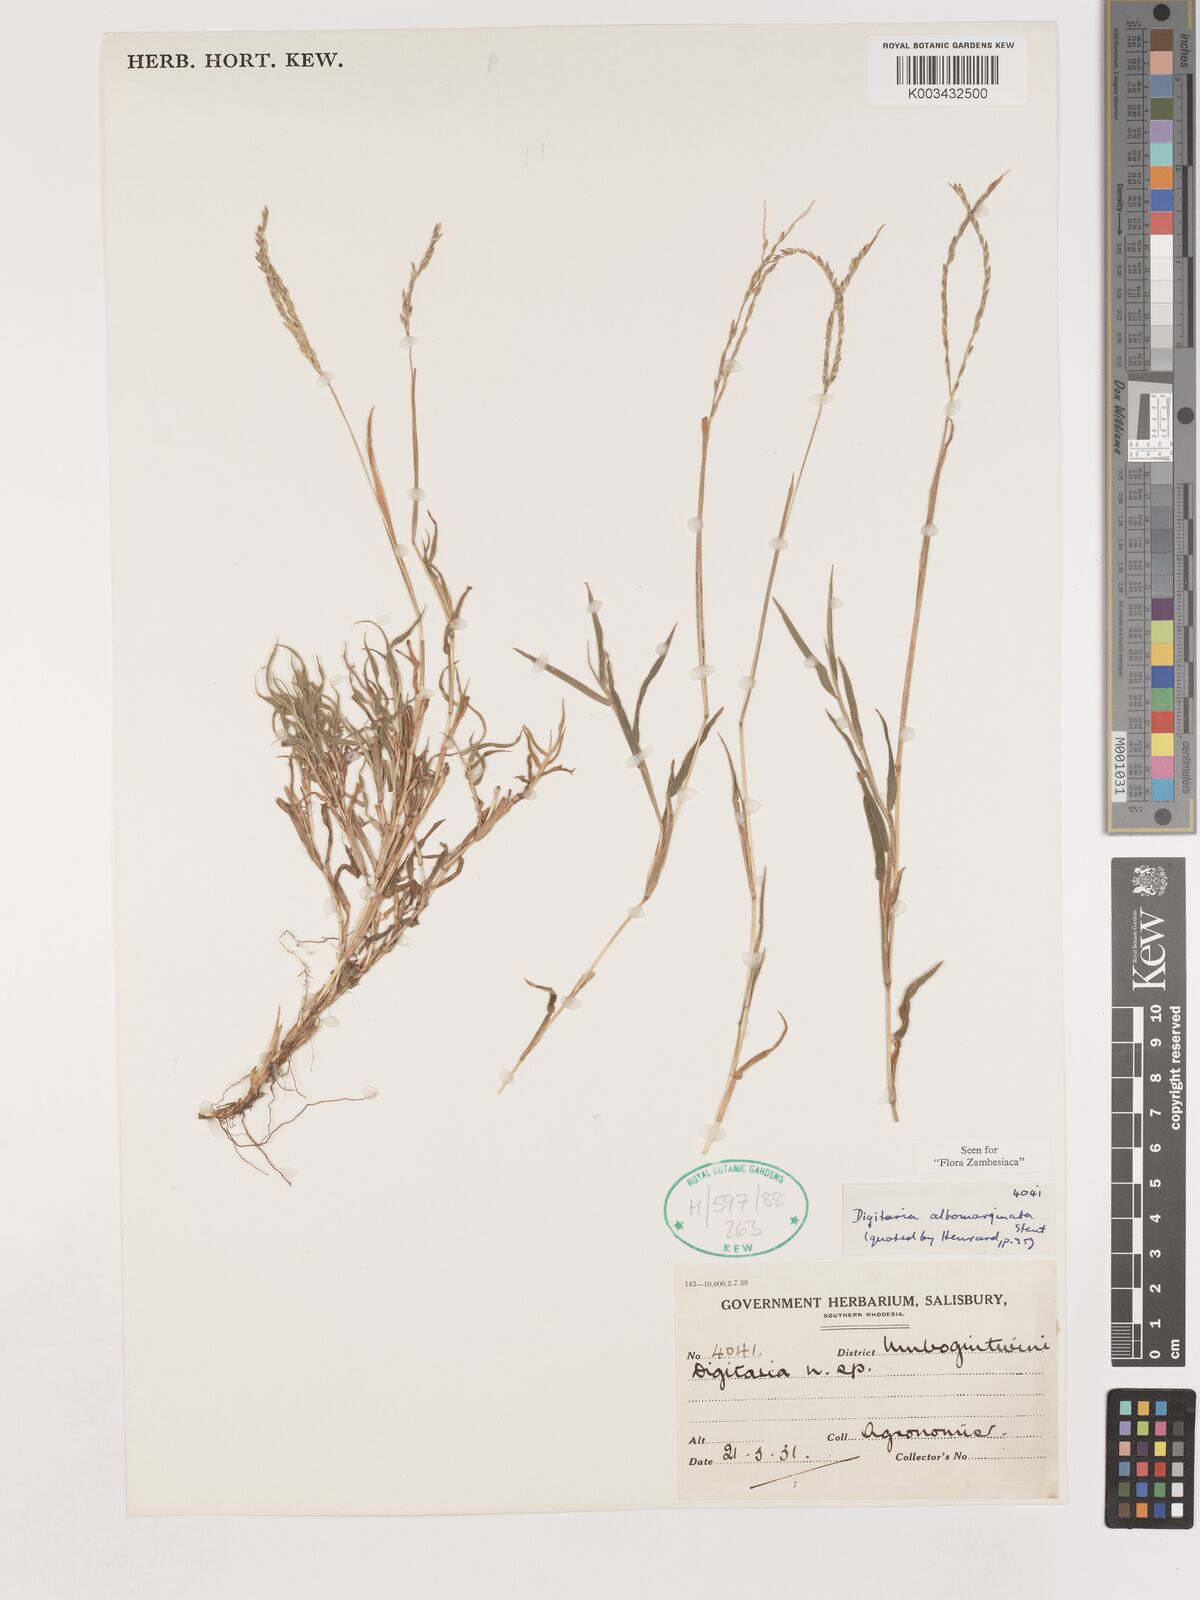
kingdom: Plantae
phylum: Tracheophyta
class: Liliopsida
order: Poales
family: Poaceae
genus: Digitaria
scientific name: Digitaria diversinervis
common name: Richmond finger grass
